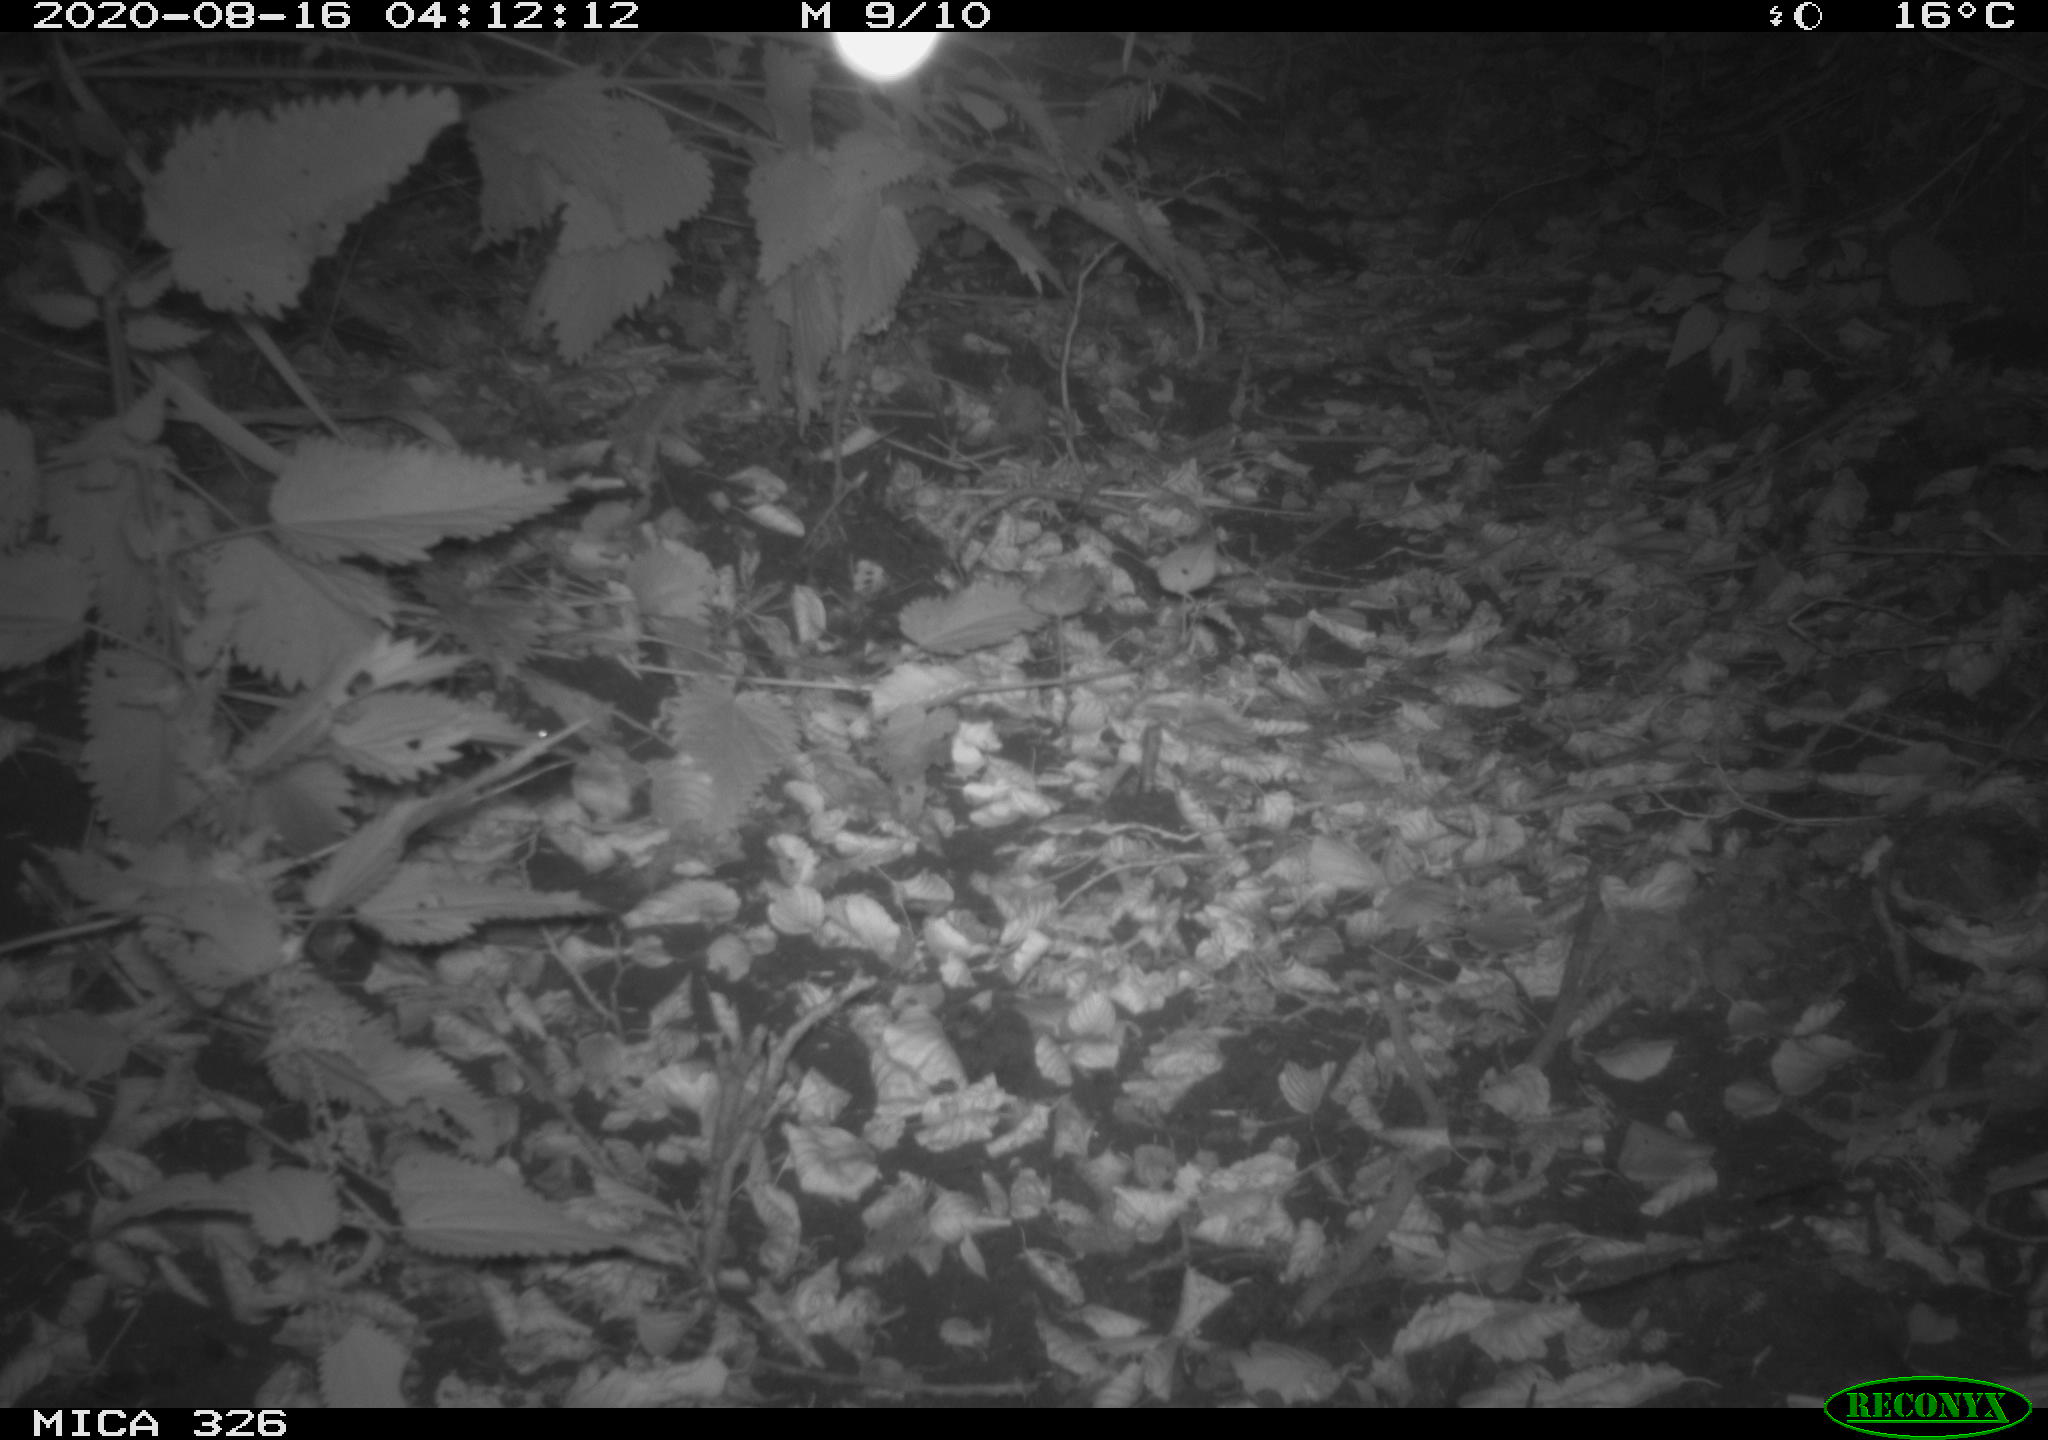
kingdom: Animalia
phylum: Chordata
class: Mammalia
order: Rodentia
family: Muridae
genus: Rattus
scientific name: Rattus norvegicus
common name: Brown rat
